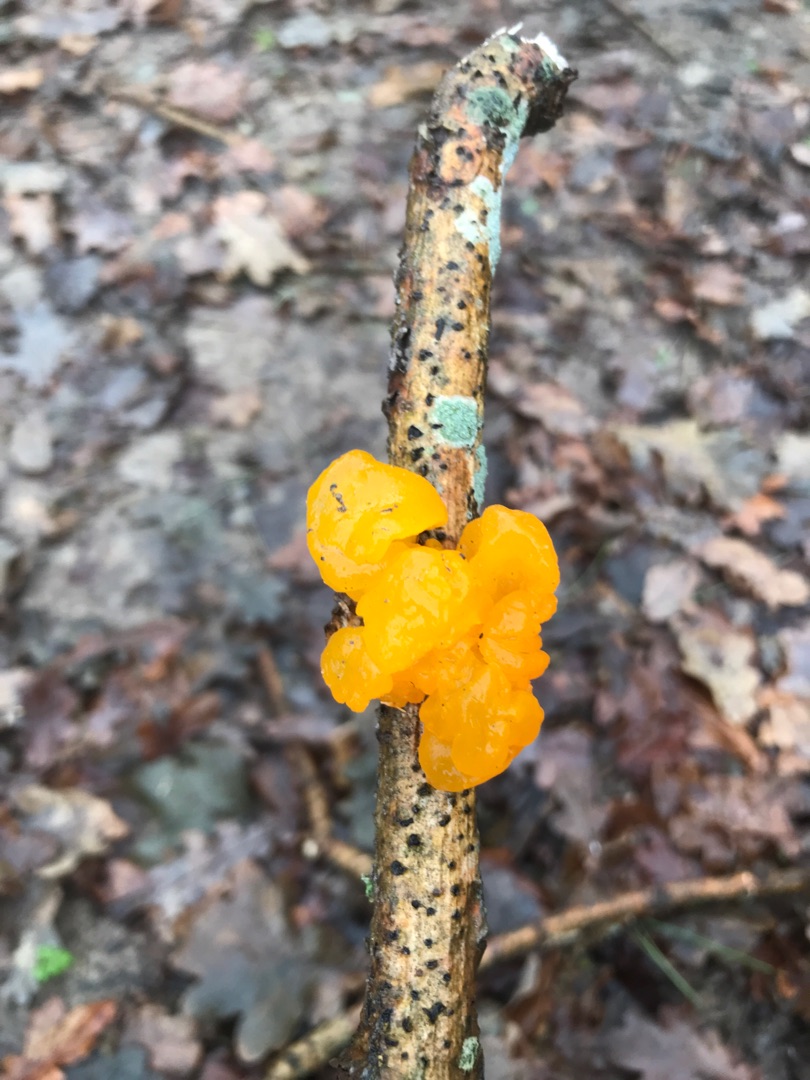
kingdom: Fungi
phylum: Basidiomycota
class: Tremellomycetes
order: Tremellales
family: Tremellaceae
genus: Tremella
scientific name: Tremella mesenterica
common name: Gul bævresvamp
